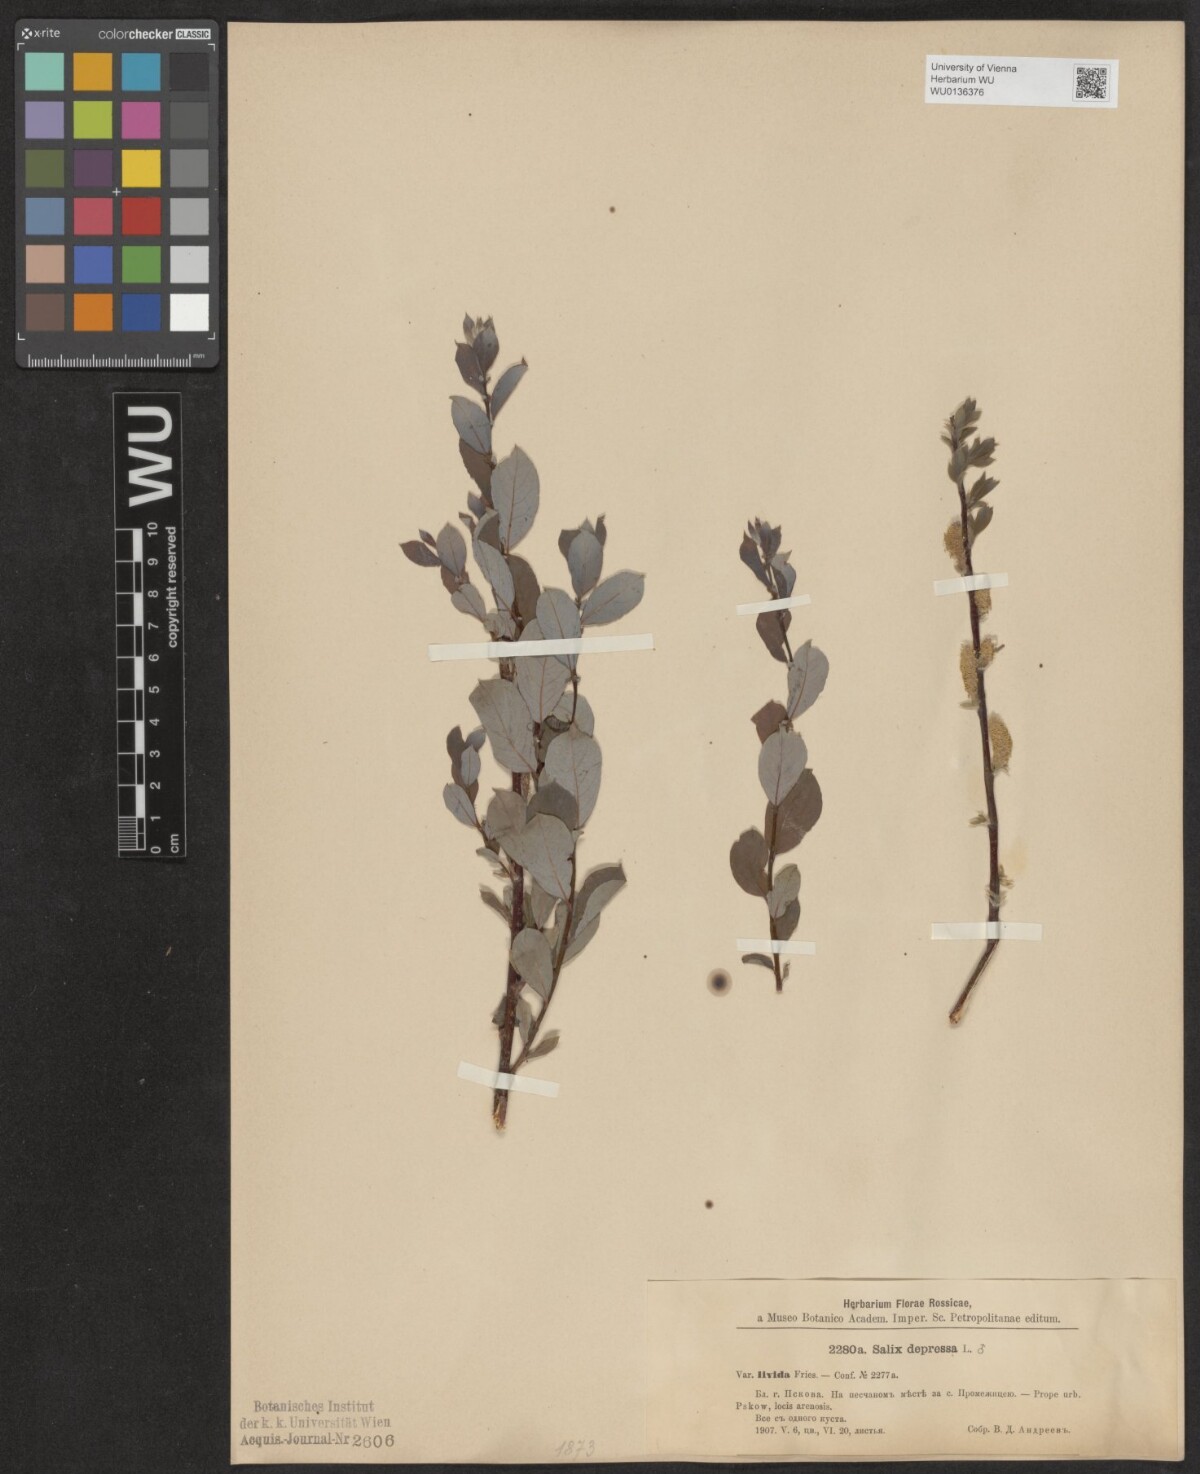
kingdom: Plantae
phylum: Tracheophyta
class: Magnoliopsida
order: Malpighiales
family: Salicaceae
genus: Salix
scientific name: Salix lanata
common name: Woolly willow
